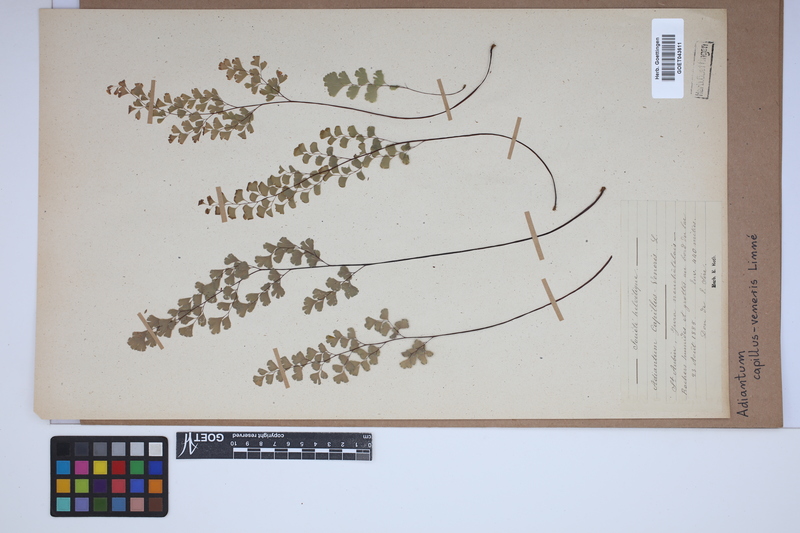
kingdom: Plantae
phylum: Tracheophyta
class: Polypodiopsida
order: Polypodiales
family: Pteridaceae
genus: Adiantum
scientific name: Adiantum capillus-veneris
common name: Maidenhair fern
